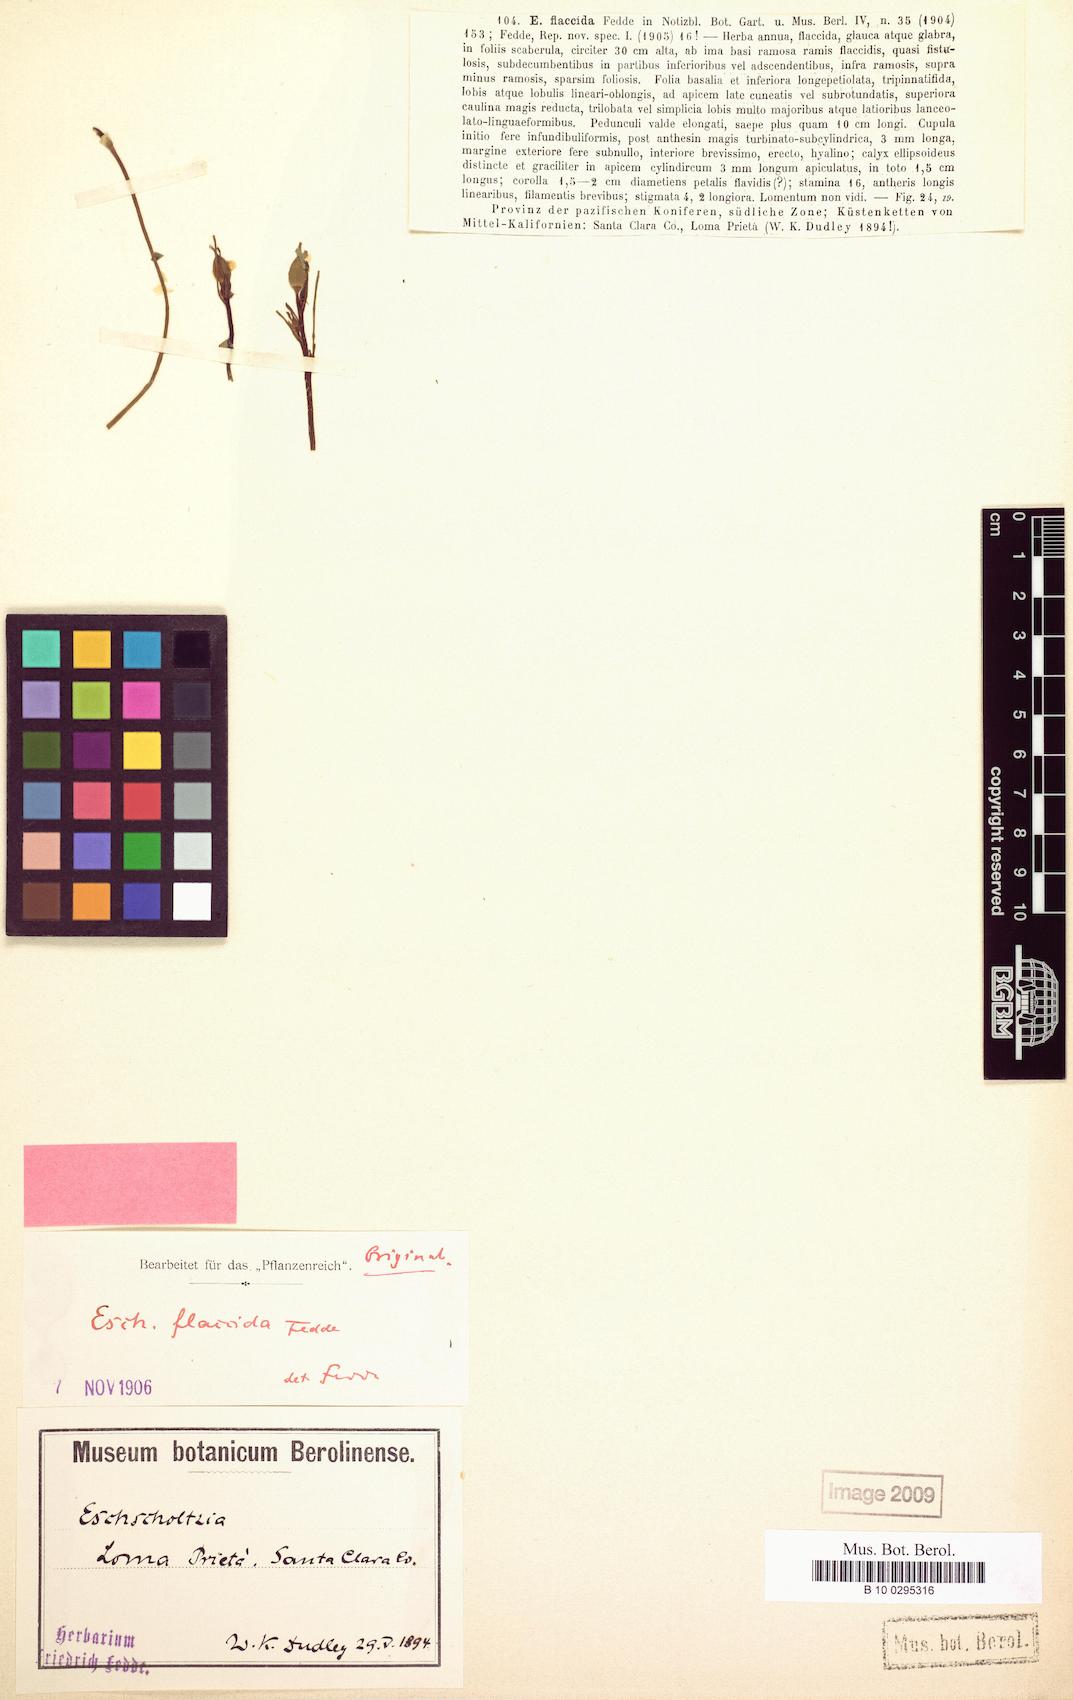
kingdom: Plantae
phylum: Tracheophyta
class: Magnoliopsida
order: Ranunculales
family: Papaveraceae
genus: Eschscholzia
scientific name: Eschscholzia caespitosa
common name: Tufted california-poppy
